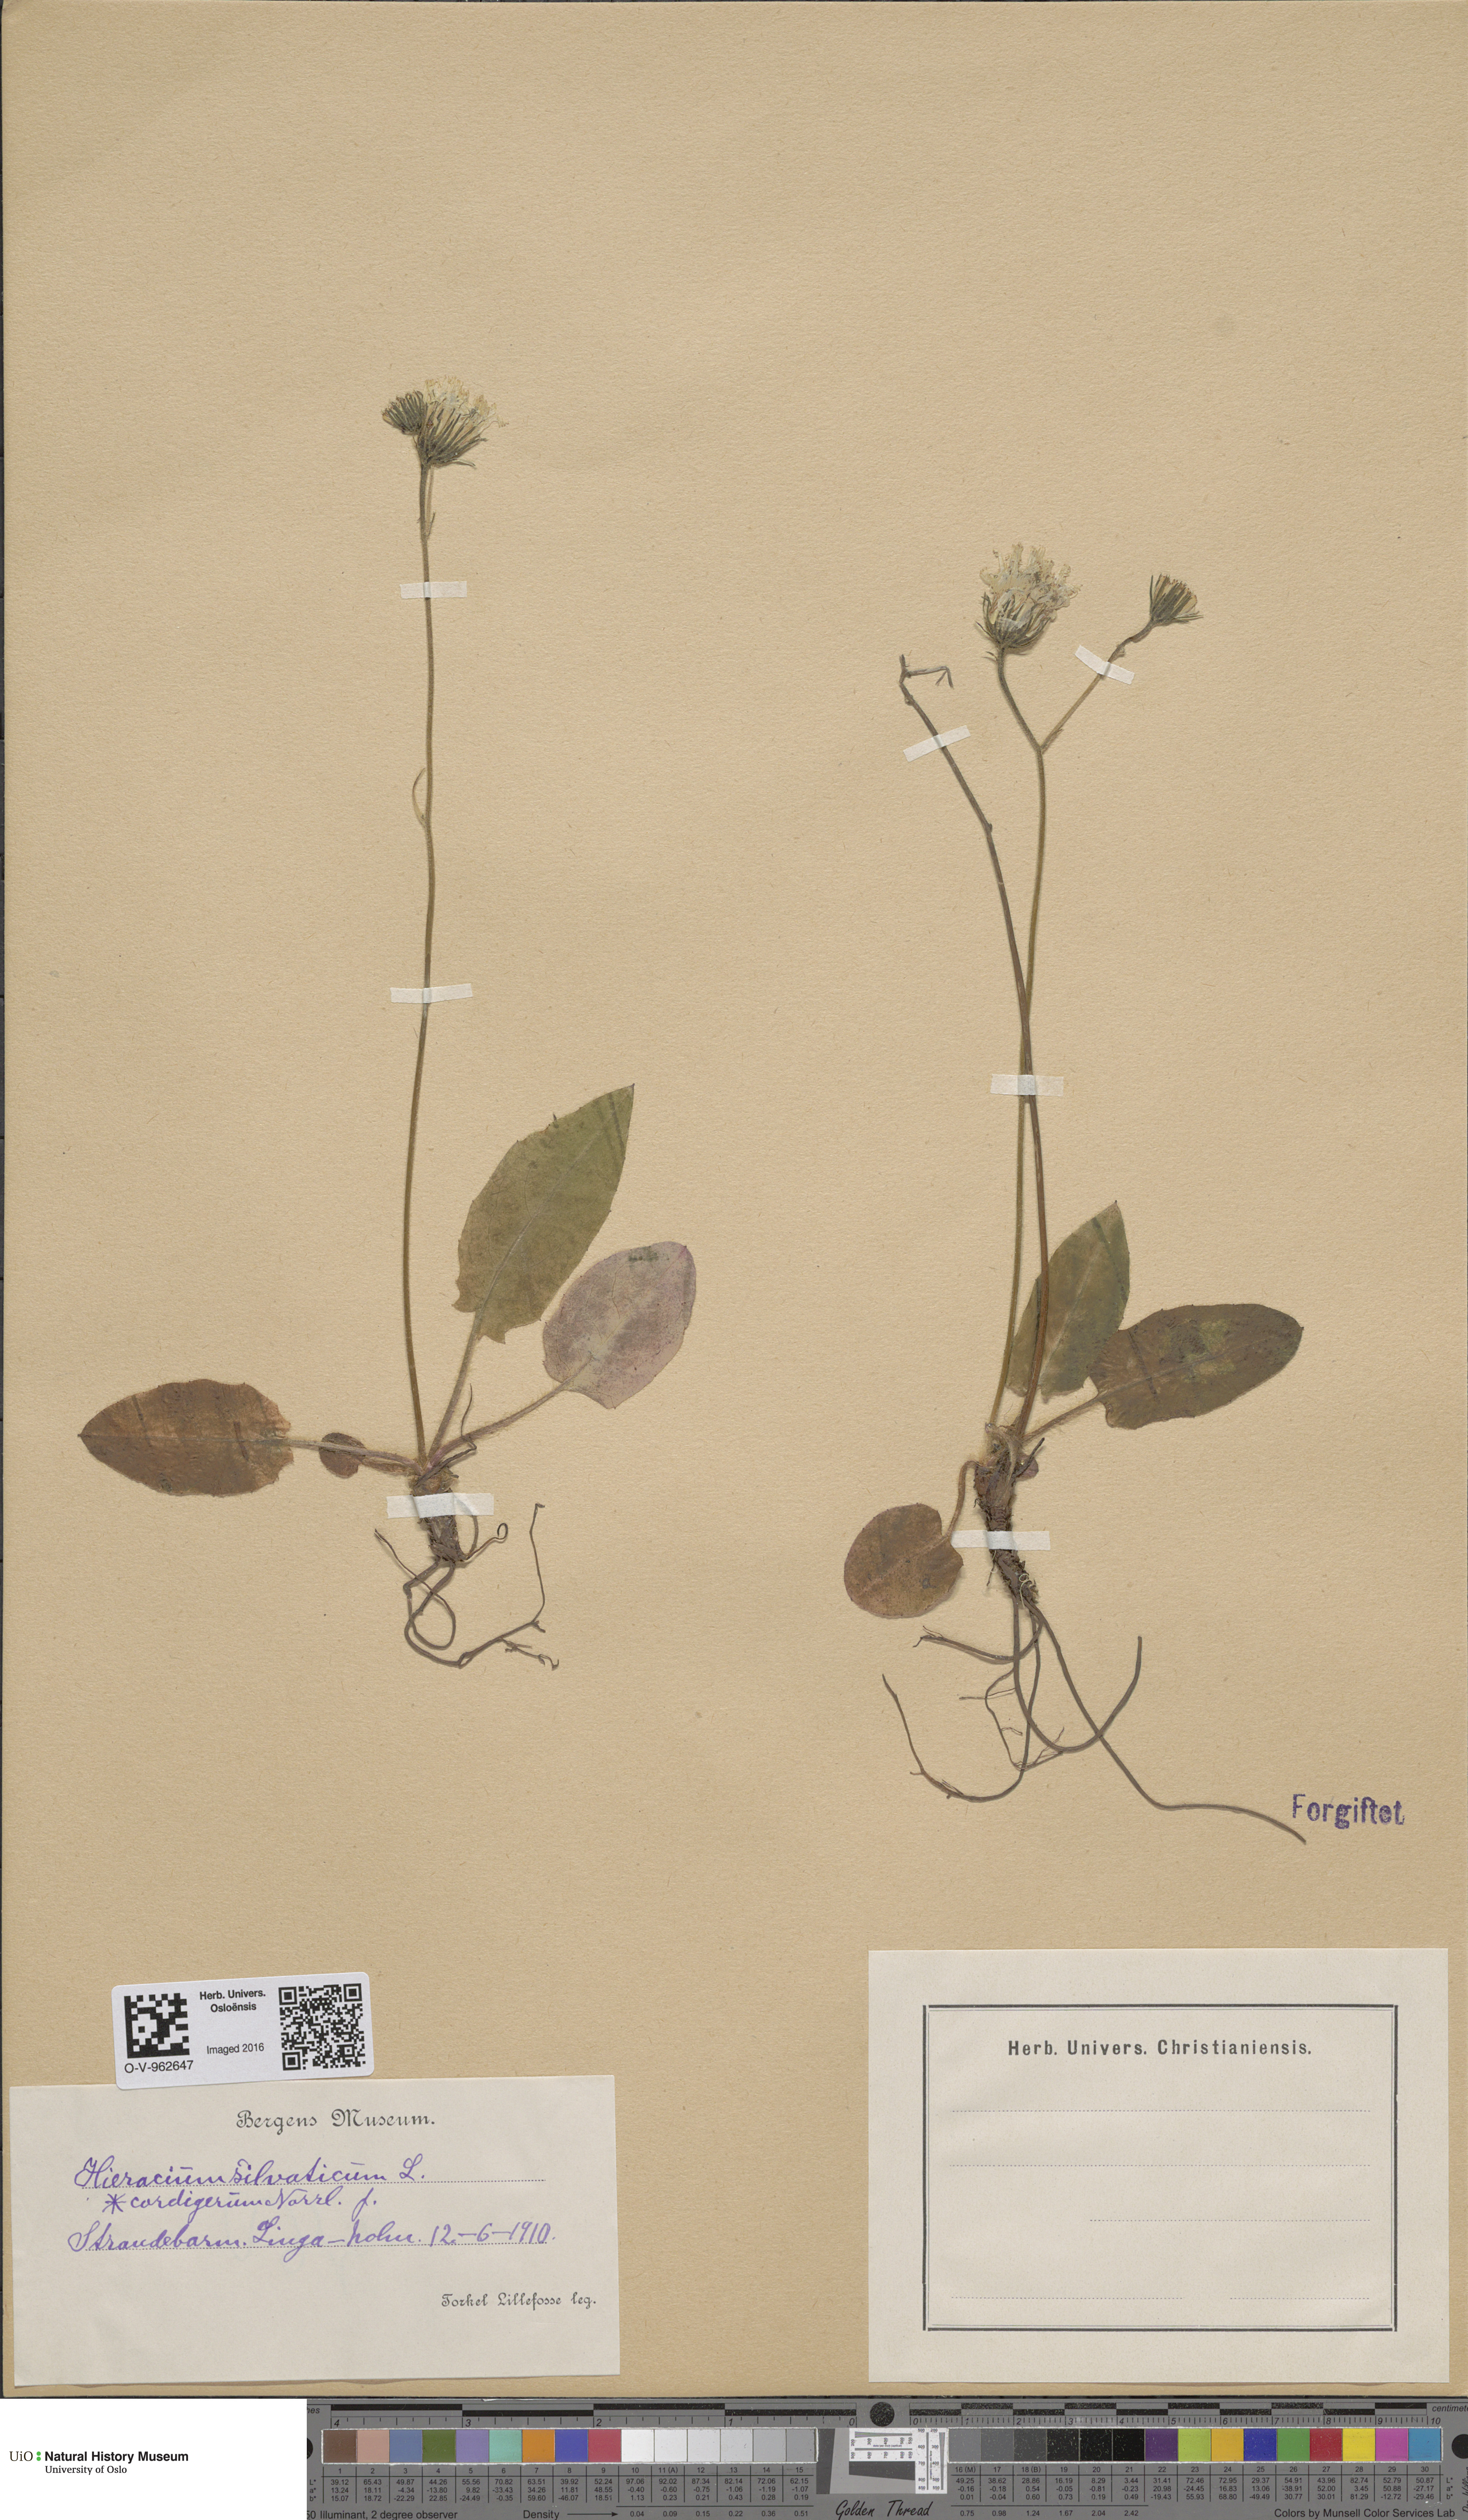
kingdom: Plantae
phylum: Tracheophyta
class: Magnoliopsida
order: Asterales
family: Asteraceae
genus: Hieracium
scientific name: Hieracium cordigerum
